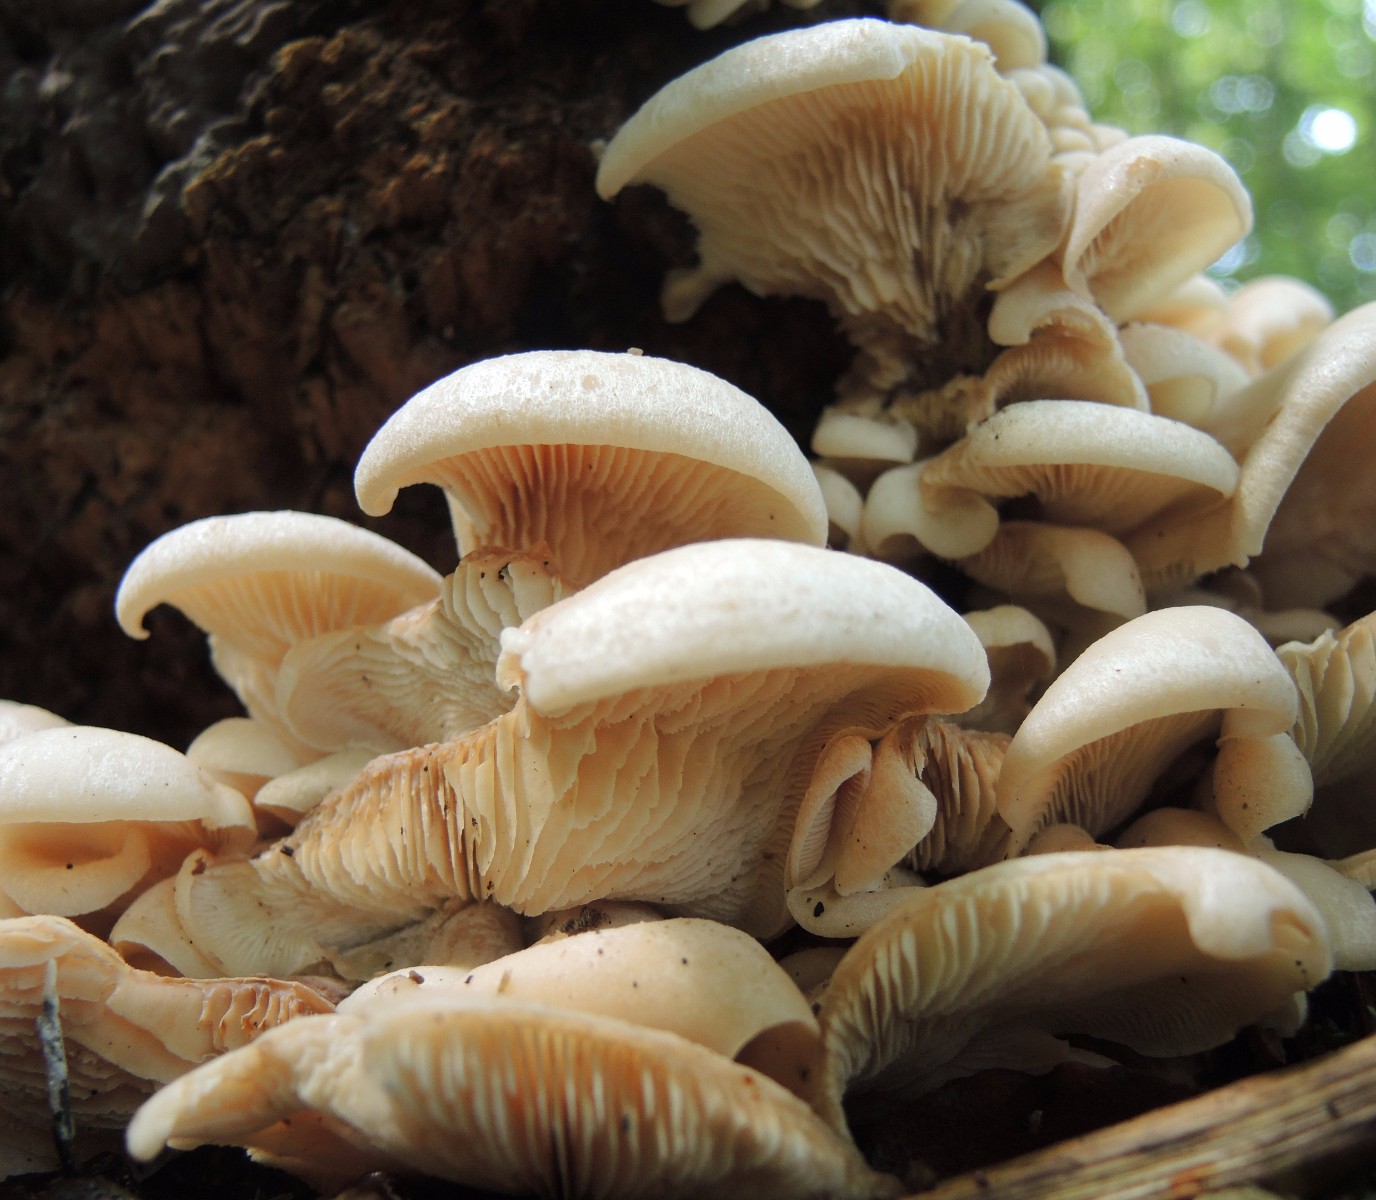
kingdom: Fungi
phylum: Basidiomycota
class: Agaricomycetes
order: Russulales
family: Auriscalpiaceae
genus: Lentinellus
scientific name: Lentinellus ursinus
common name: børstehåret savbladhat
